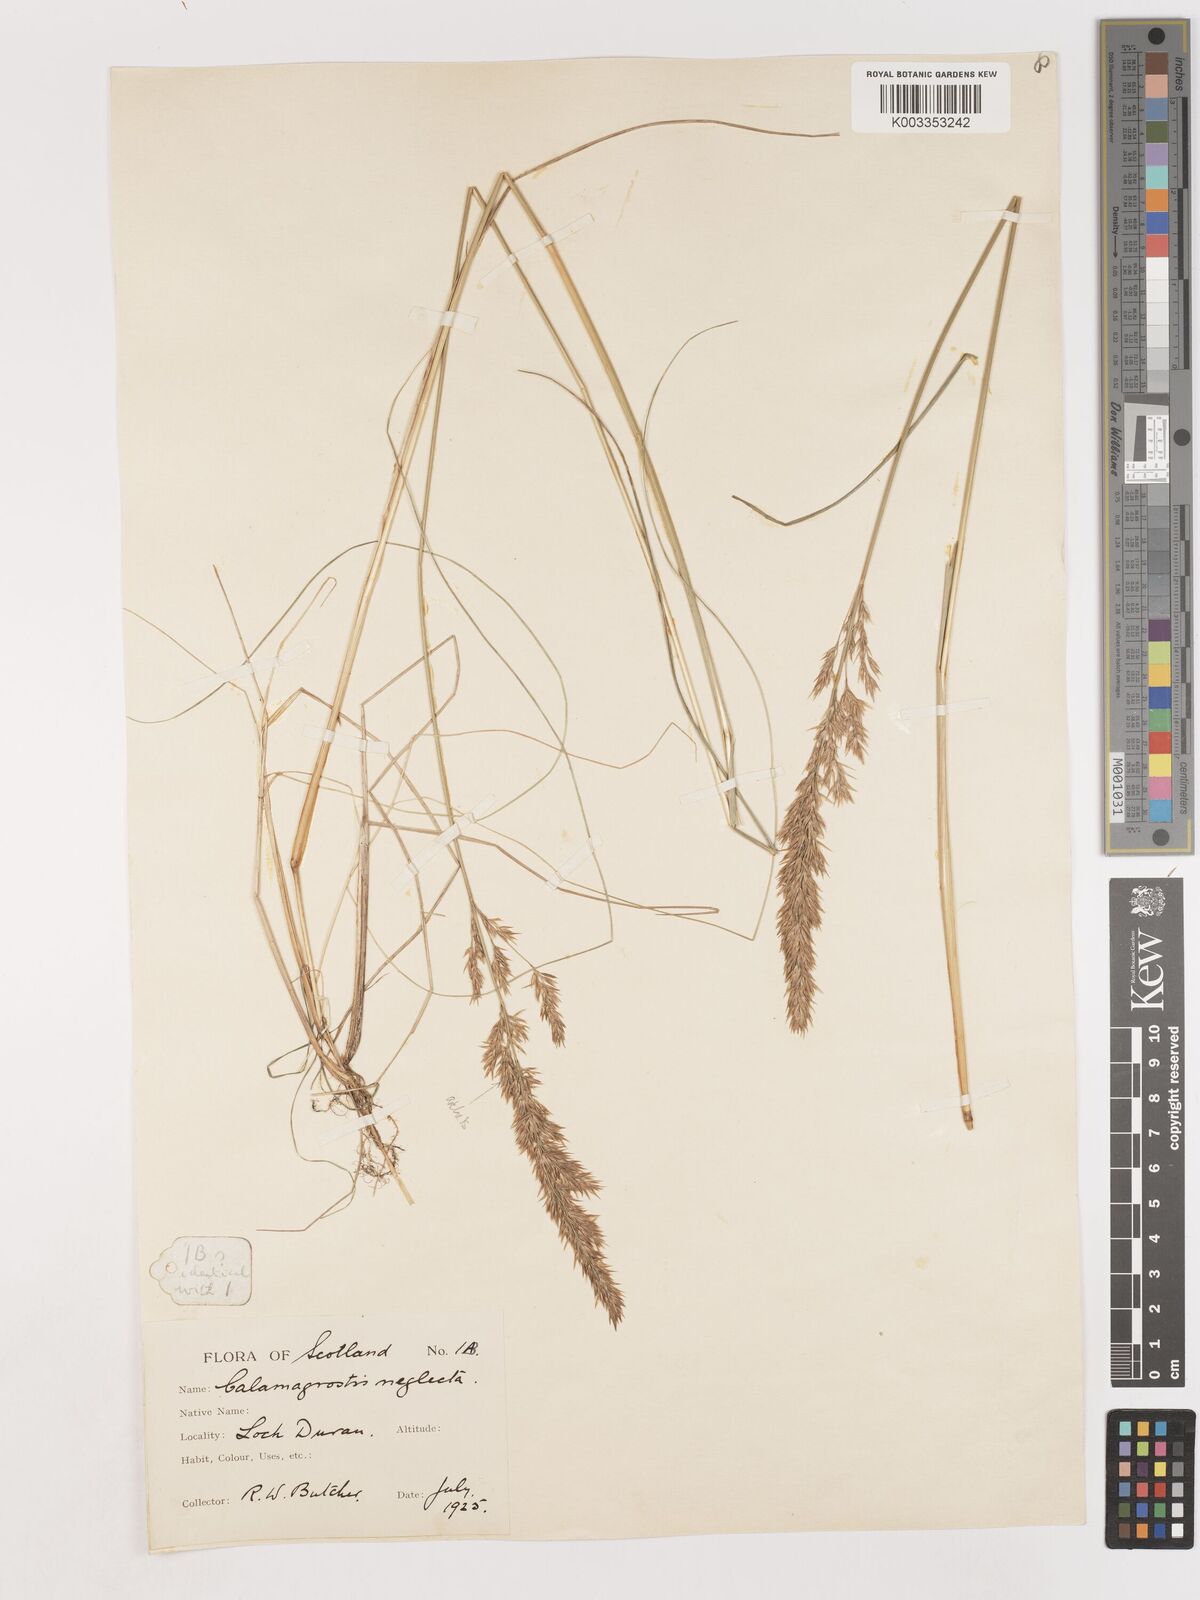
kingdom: Plantae
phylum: Tracheophyta
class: Liliopsida
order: Poales
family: Poaceae
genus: Calamagrostis
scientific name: Calamagrostis scotica
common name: Scottish small-reed
